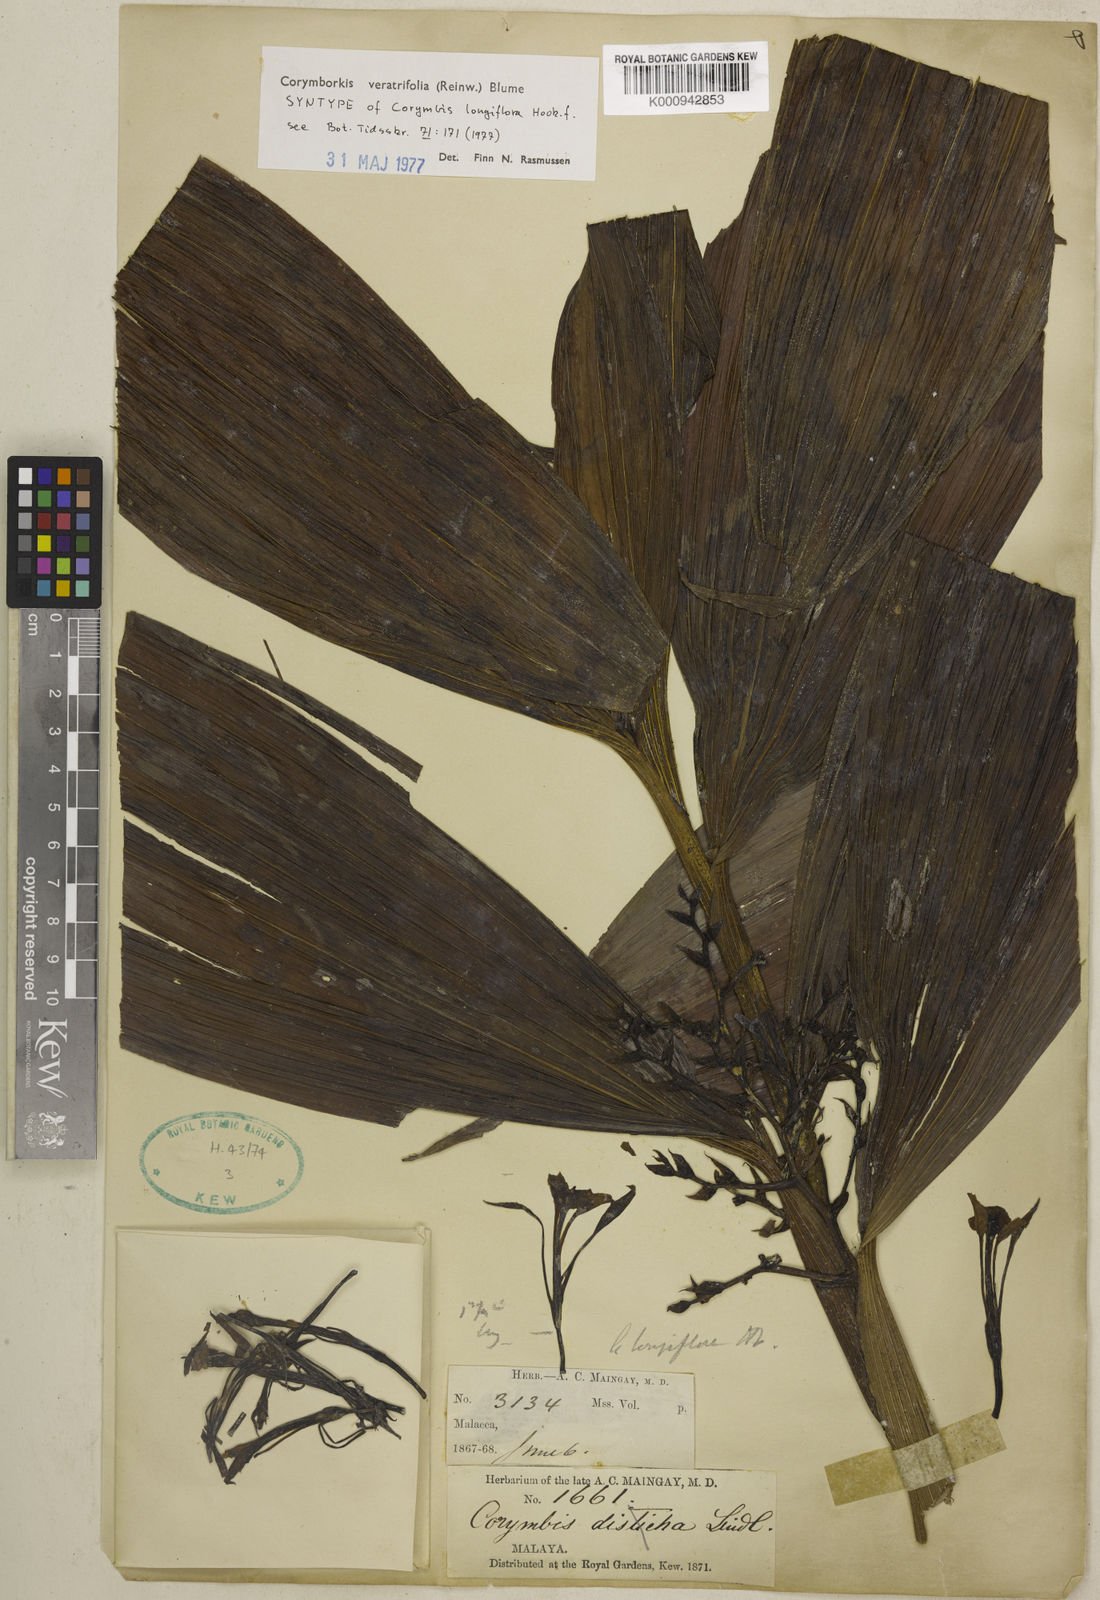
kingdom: Plantae
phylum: Tracheophyta
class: Liliopsida
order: Asparagales
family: Orchidaceae
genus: Corymborkis
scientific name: Corymborkis veratrifolia
